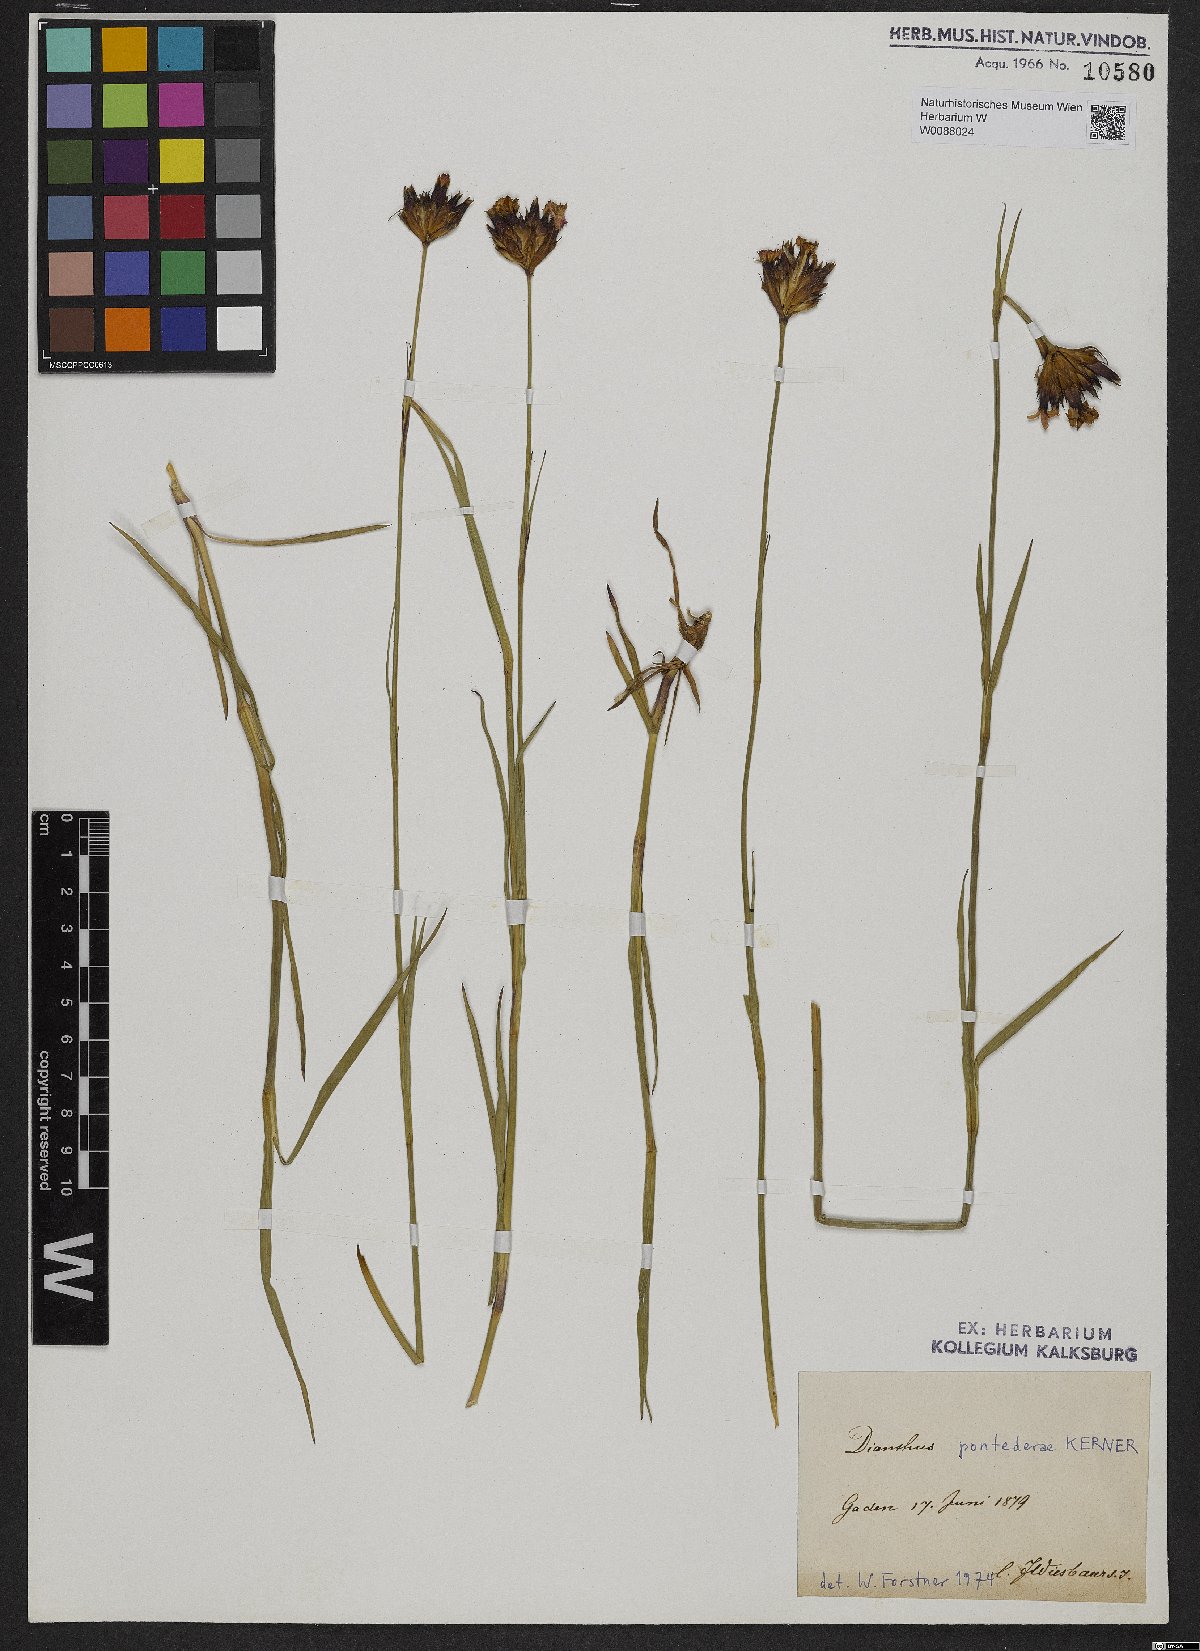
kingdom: Plantae
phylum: Tracheophyta
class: Magnoliopsida
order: Caryophyllales
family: Caryophyllaceae
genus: Dianthus
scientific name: Dianthus pontederae
